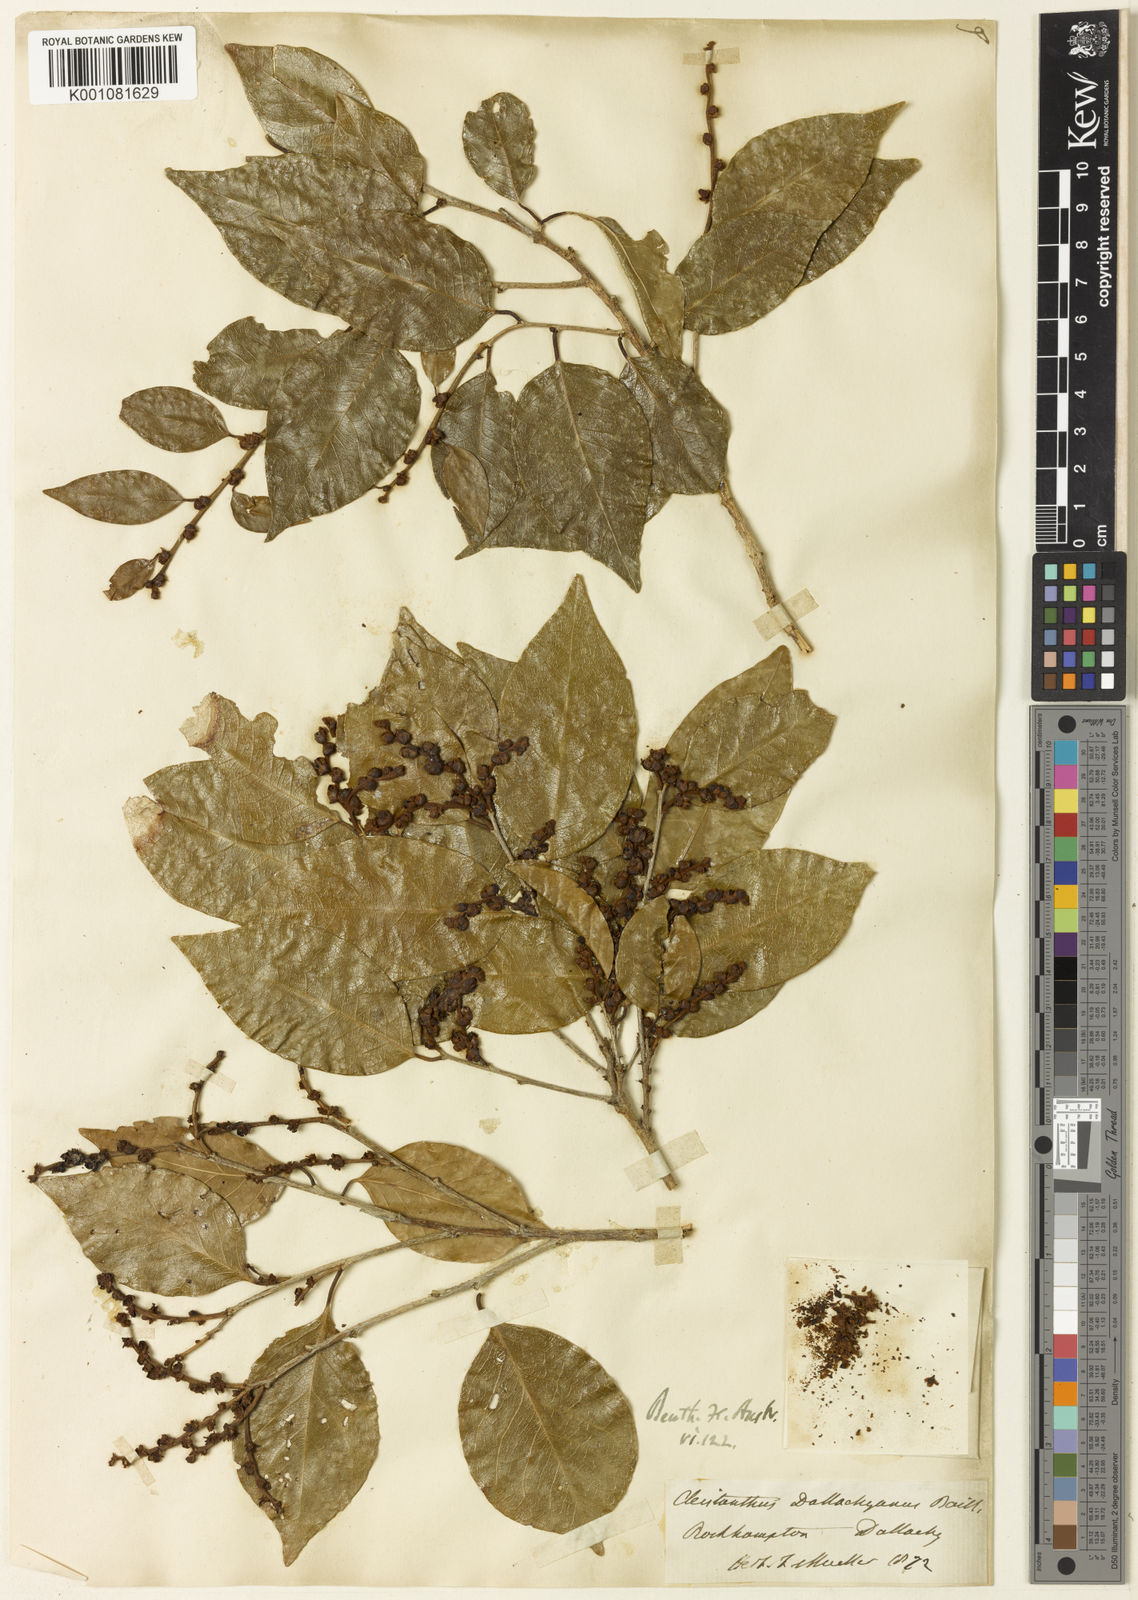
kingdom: Plantae
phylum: Tracheophyta
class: Magnoliopsida
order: Malpighiales
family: Phyllanthaceae
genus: Cleistanthus
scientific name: Cleistanthus dallachyanus
